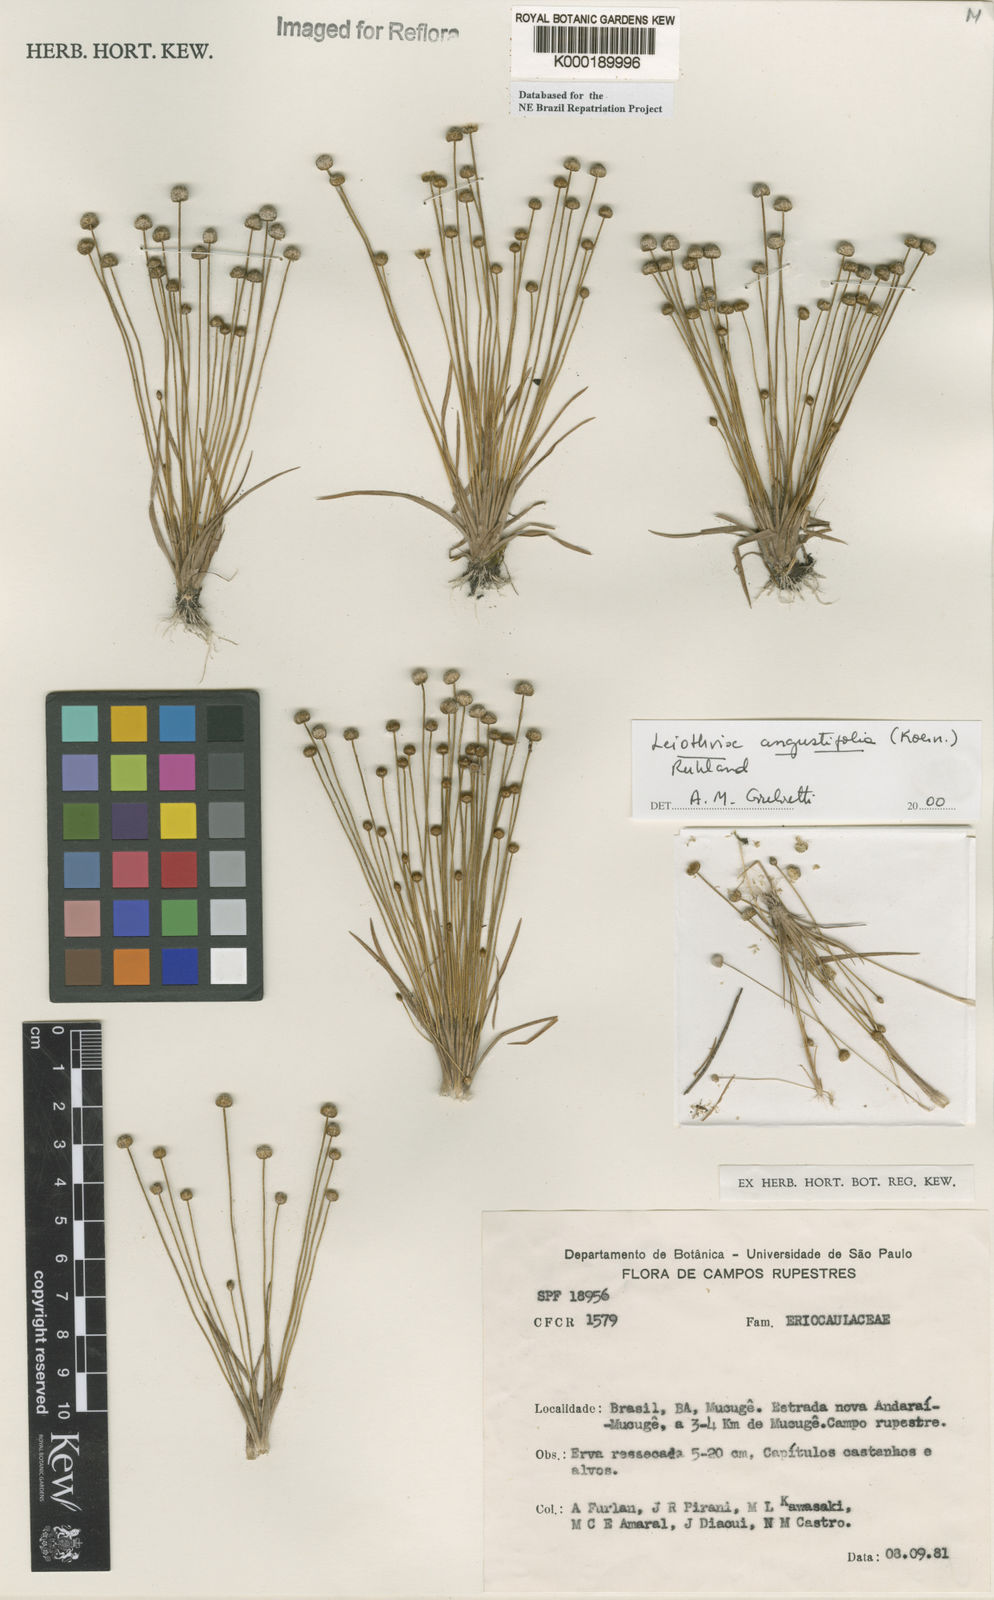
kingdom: Plantae
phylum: Tracheophyta
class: Liliopsida
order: Poales
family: Eriocaulaceae
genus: Leiothrix
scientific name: Leiothrix angustifolia
